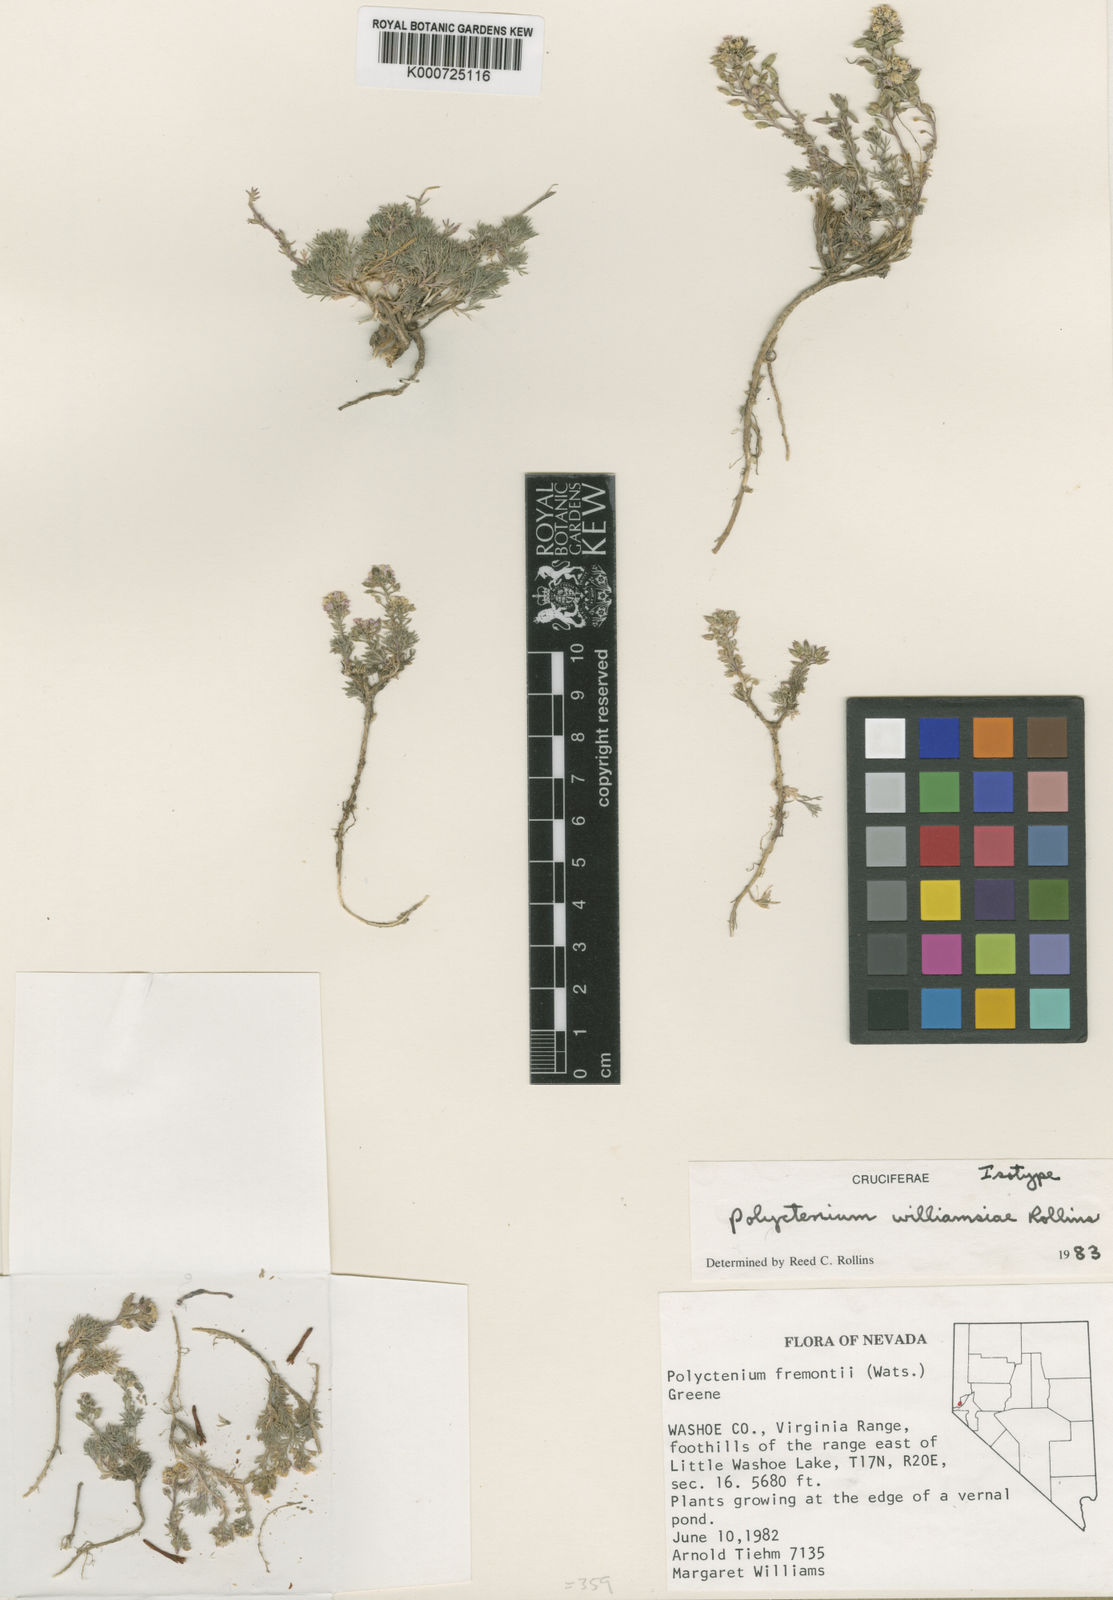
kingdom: Plantae
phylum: Tracheophyta
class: Magnoliopsida
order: Brassicales
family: Brassicaceae
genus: Polyctenium
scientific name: Polyctenium fremontii
